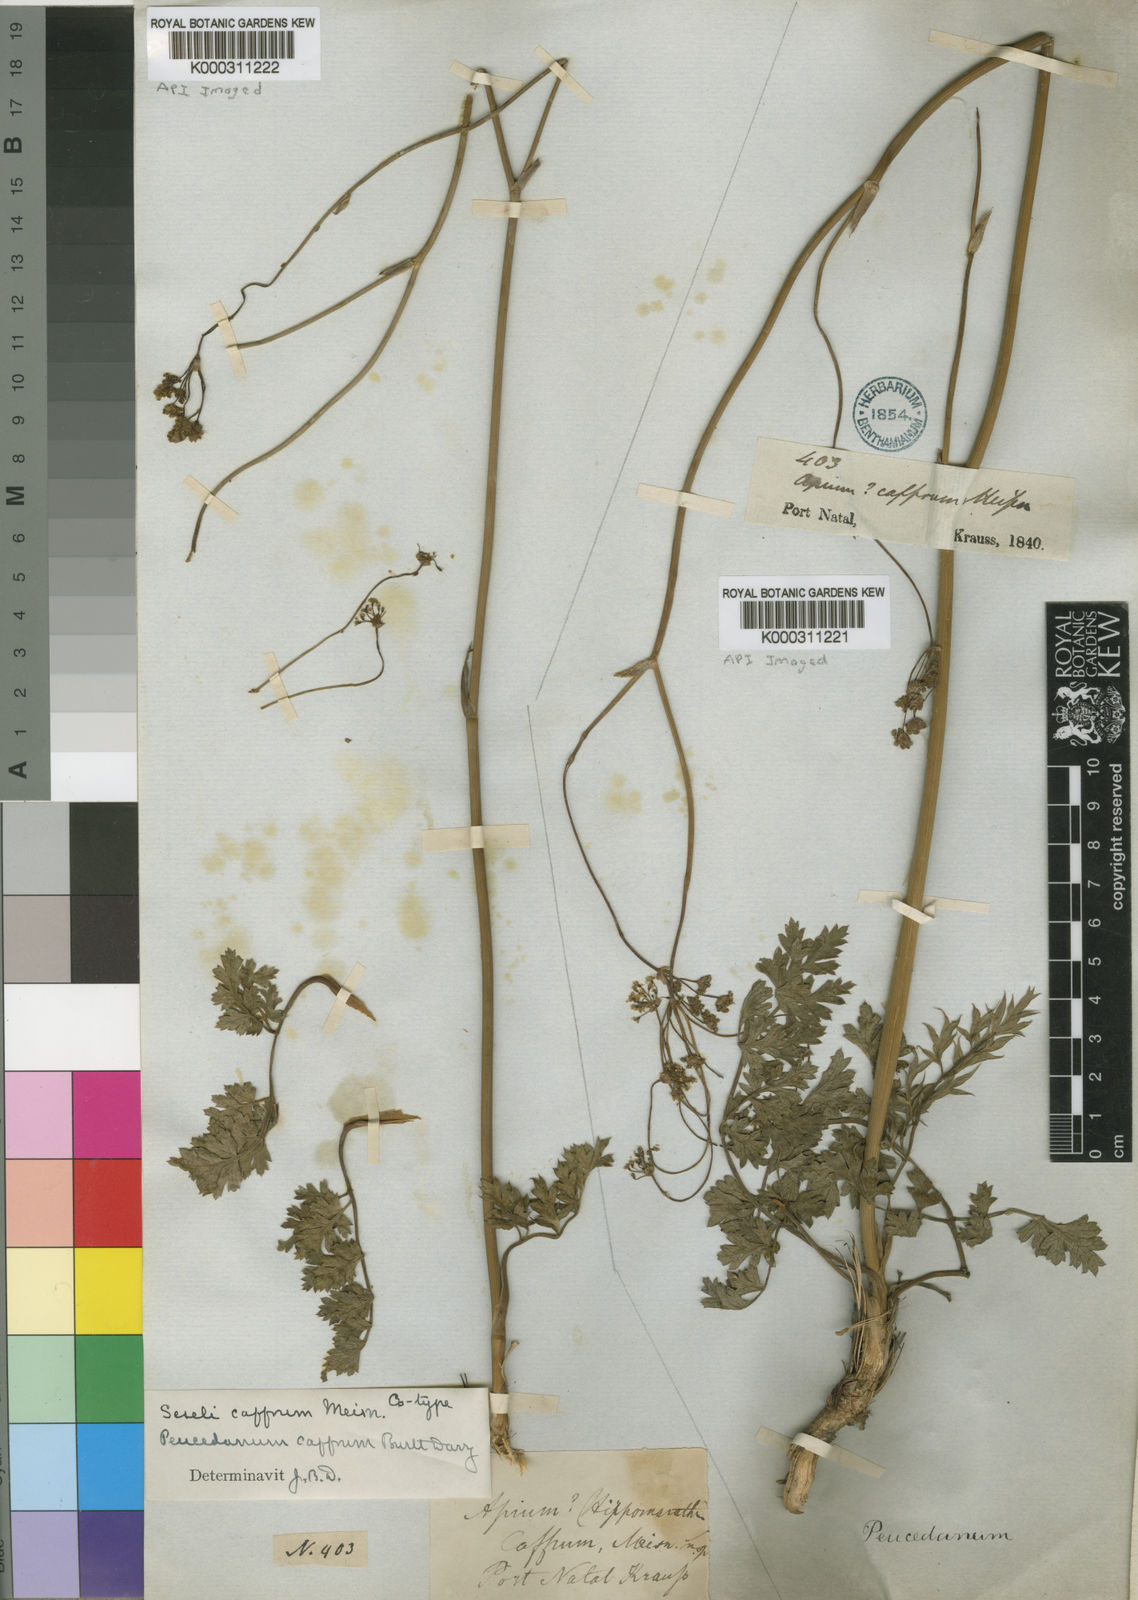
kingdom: Plantae
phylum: Tracheophyta
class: Magnoliopsida
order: Apiales
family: Apiaceae
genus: Afrosciadium
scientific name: Afrosciadium caffrum
